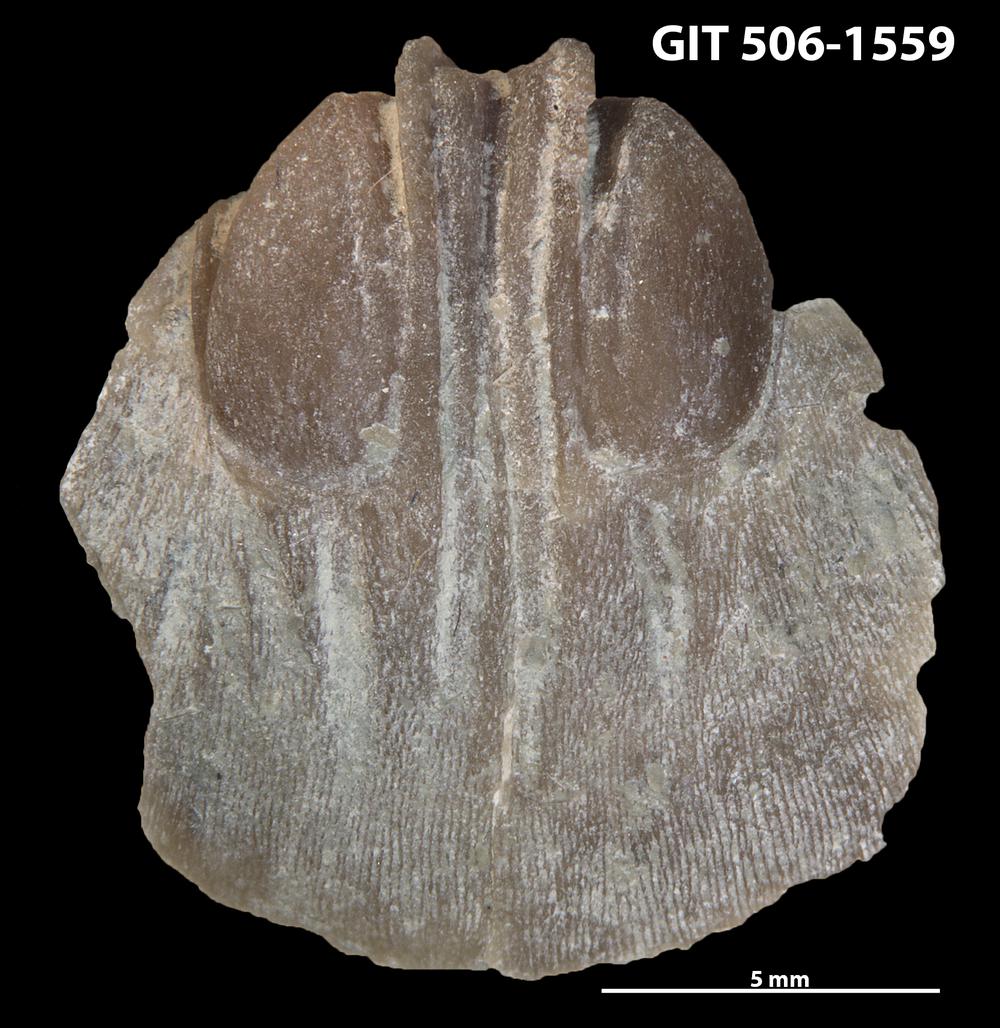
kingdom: Animalia
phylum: Brachiopoda
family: Sowerbyellidae
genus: Ygerodiscus
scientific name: Ygerodiscus Eoplectodonta bella
